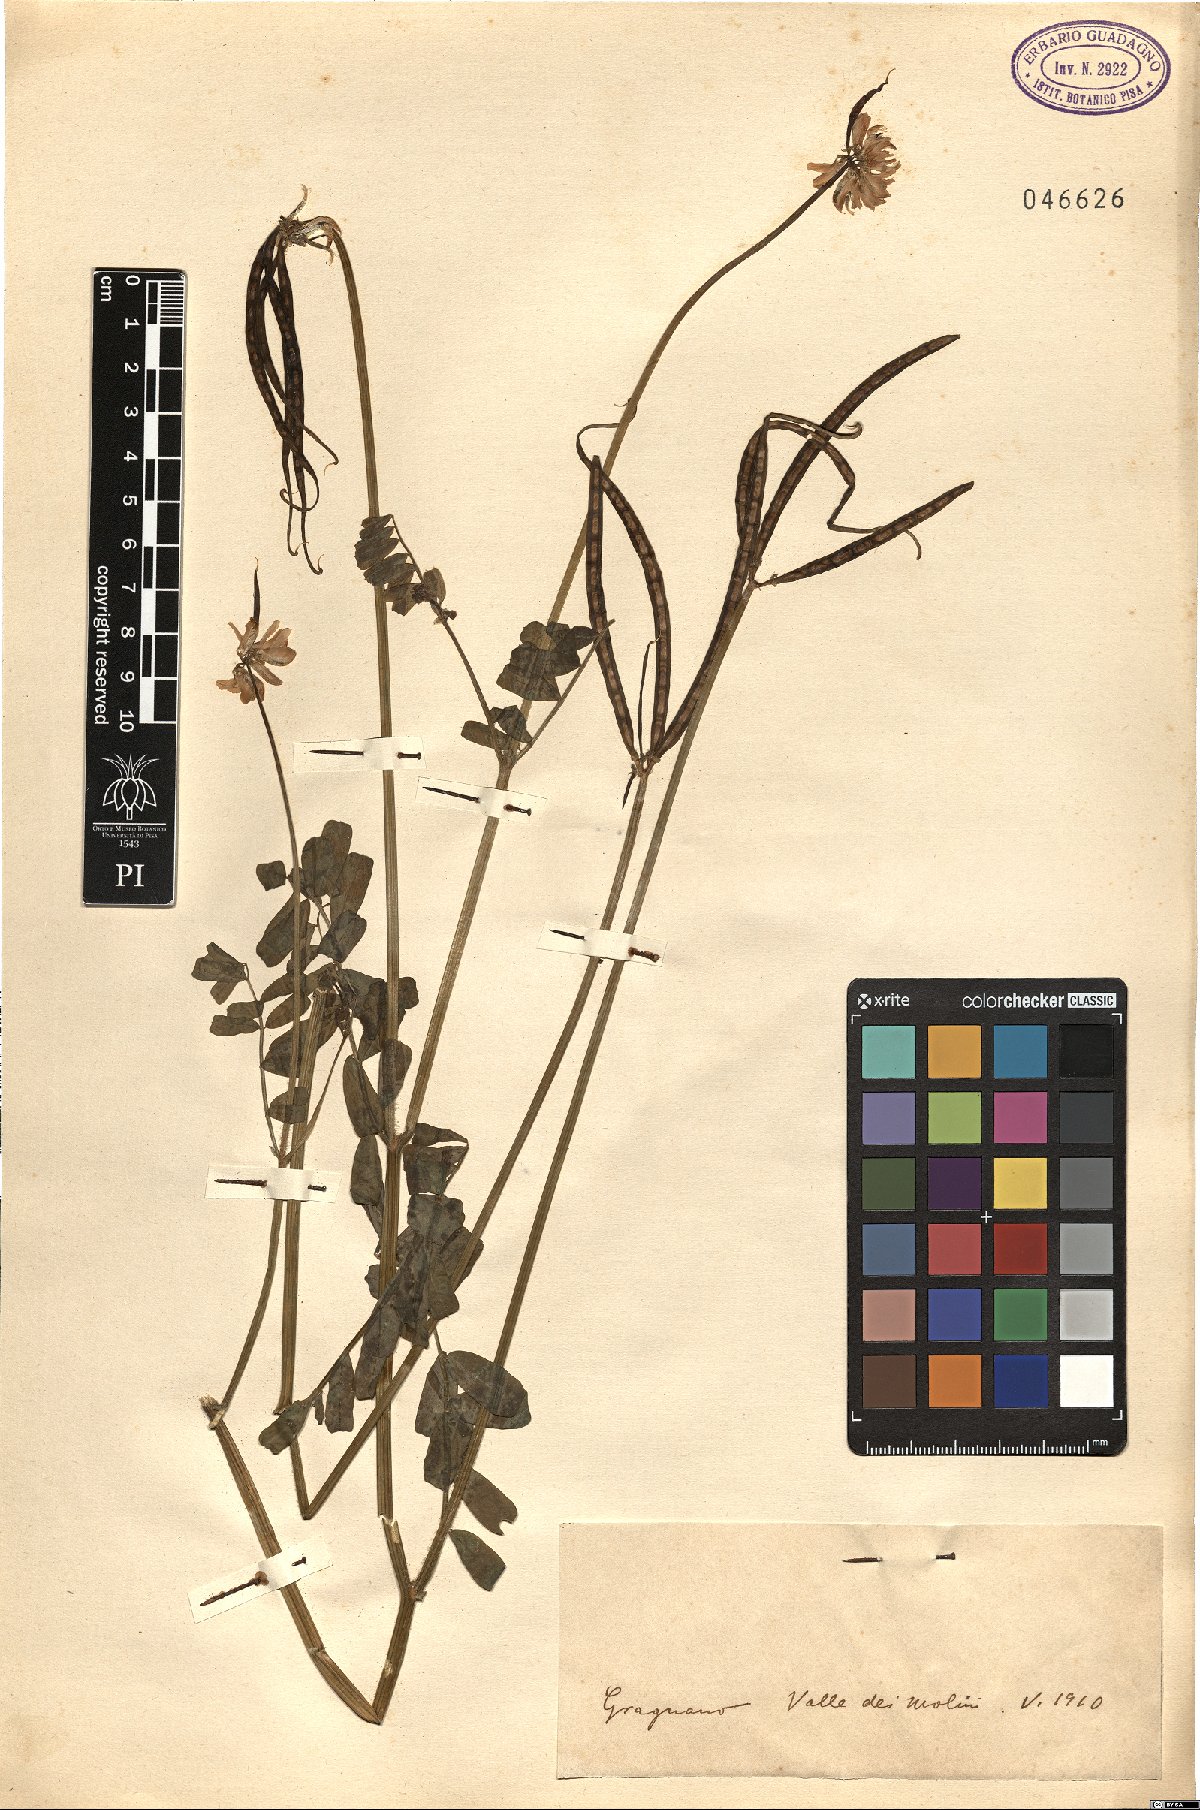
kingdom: Animalia
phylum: Arthropoda
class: Insecta
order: Orthoptera
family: Romaleidae
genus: Securigera
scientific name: Securigera
